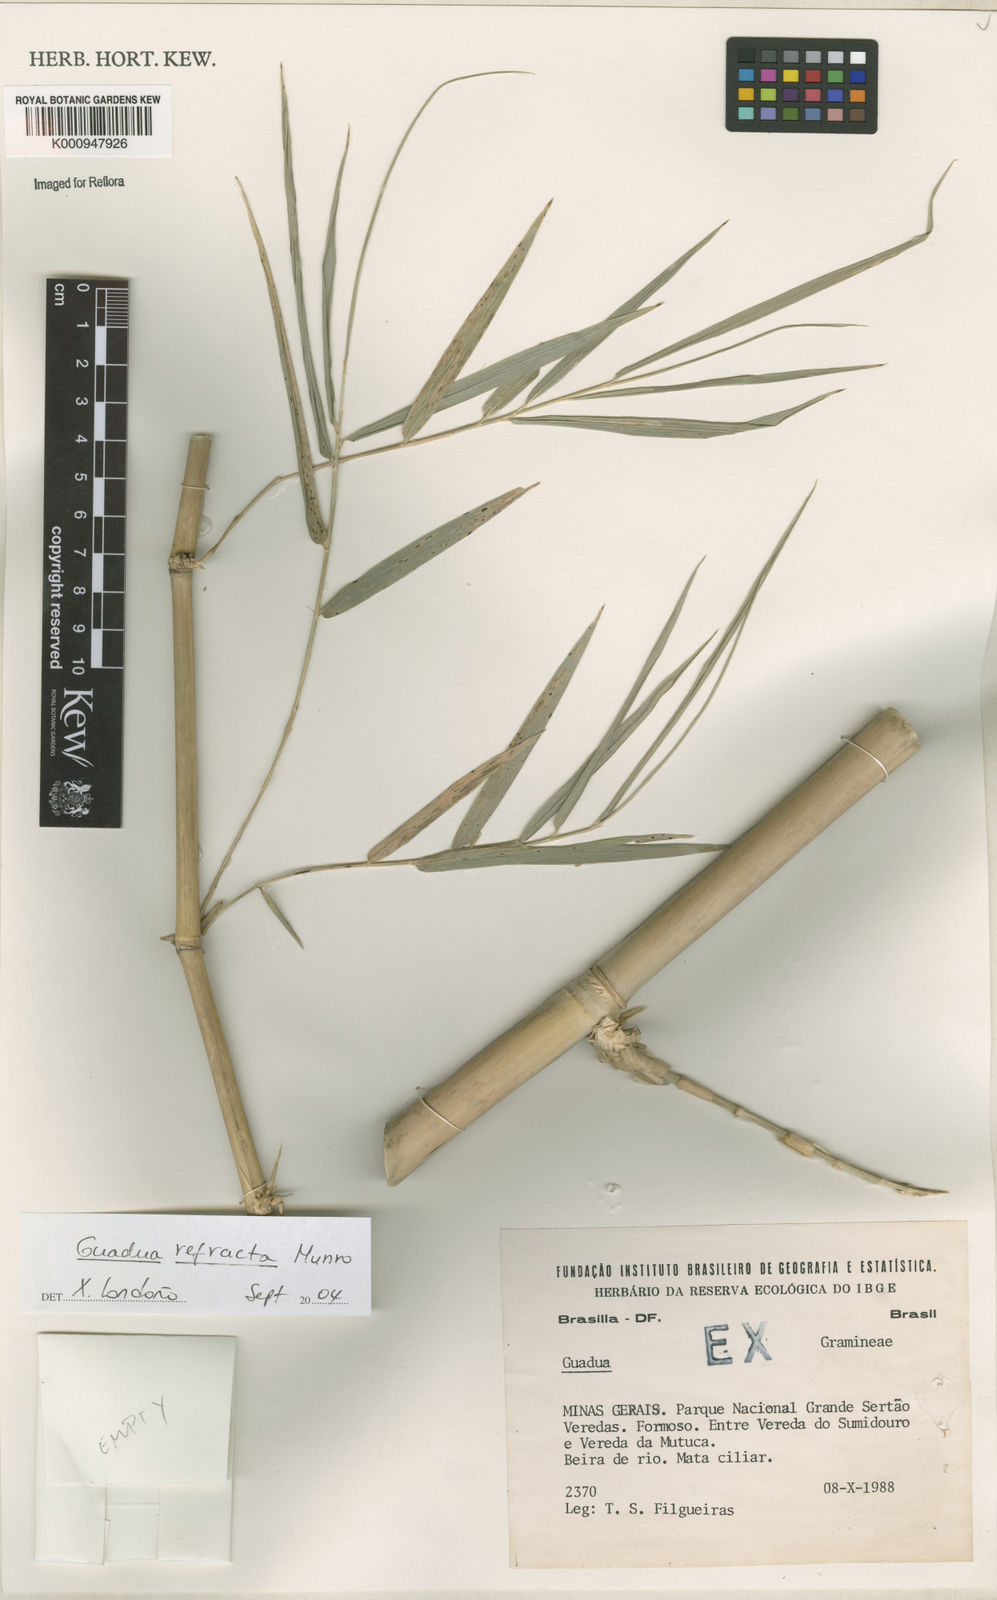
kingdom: Plantae
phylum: Tracheophyta
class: Liliopsida
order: Poales
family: Poaceae
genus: Guadua
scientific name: Guadua
